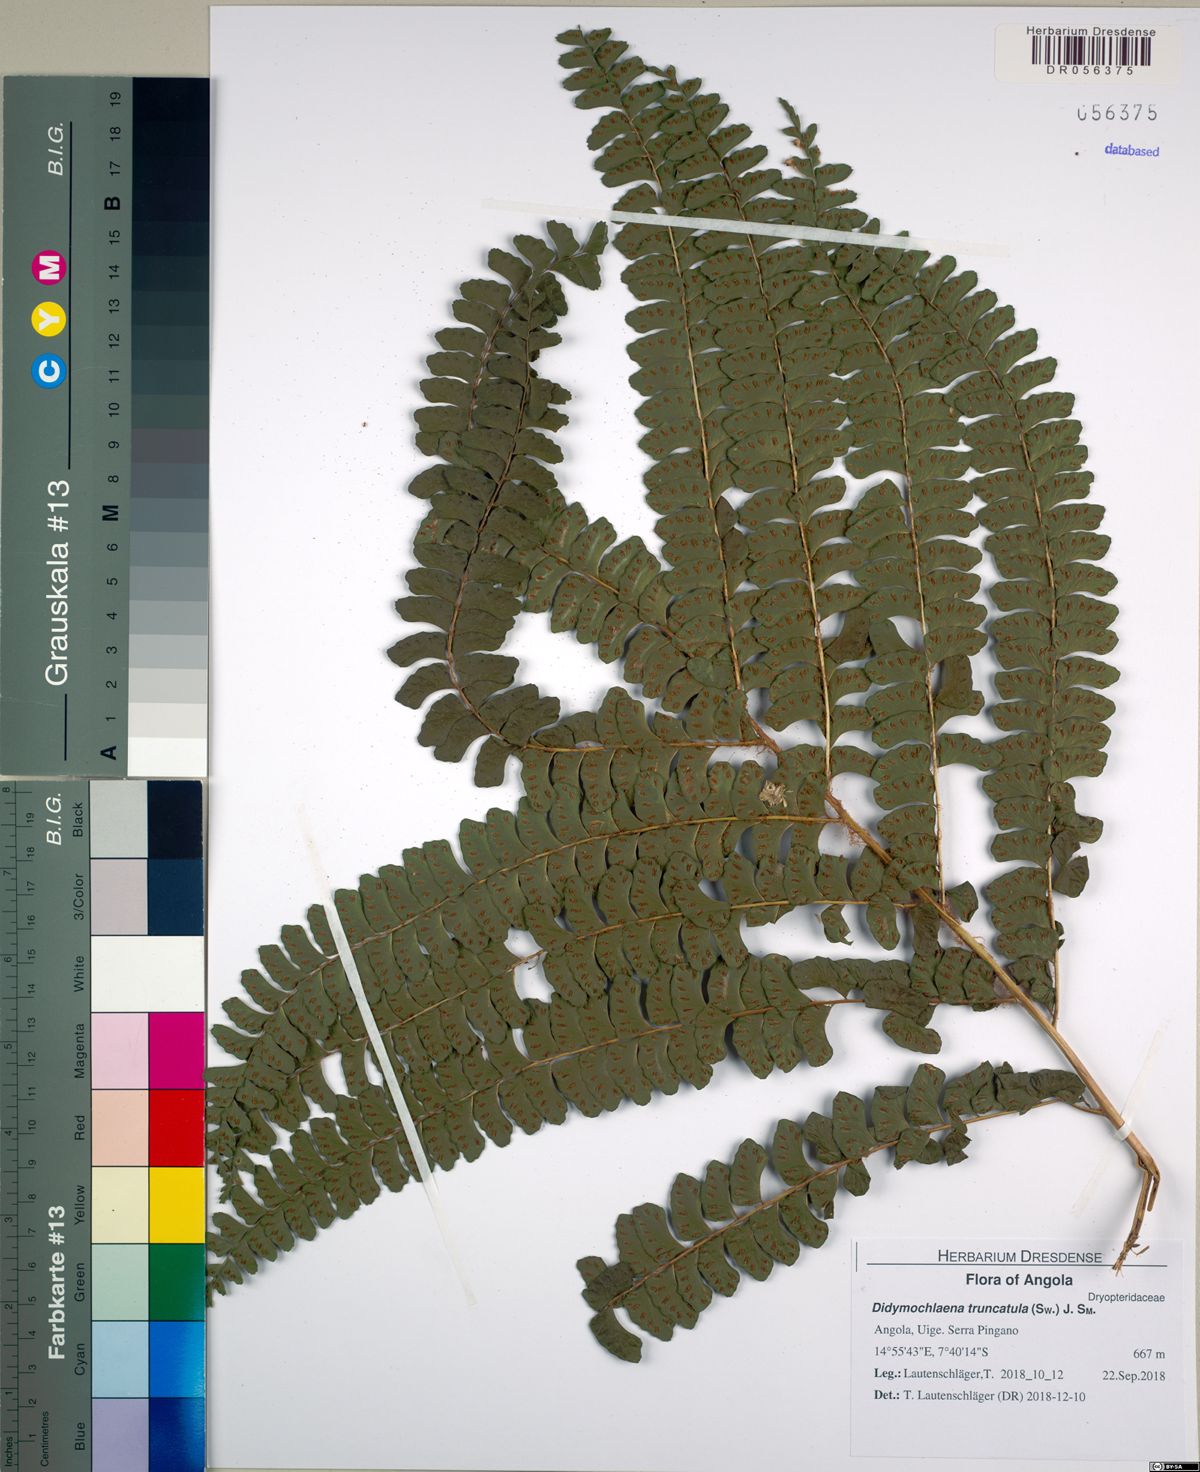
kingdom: Plantae
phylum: Tracheophyta
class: Polypodiopsida
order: Polypodiales
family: Didymochlaenaceae
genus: Didymochlaena
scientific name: Didymochlaena truncatula
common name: Mahogany fern
